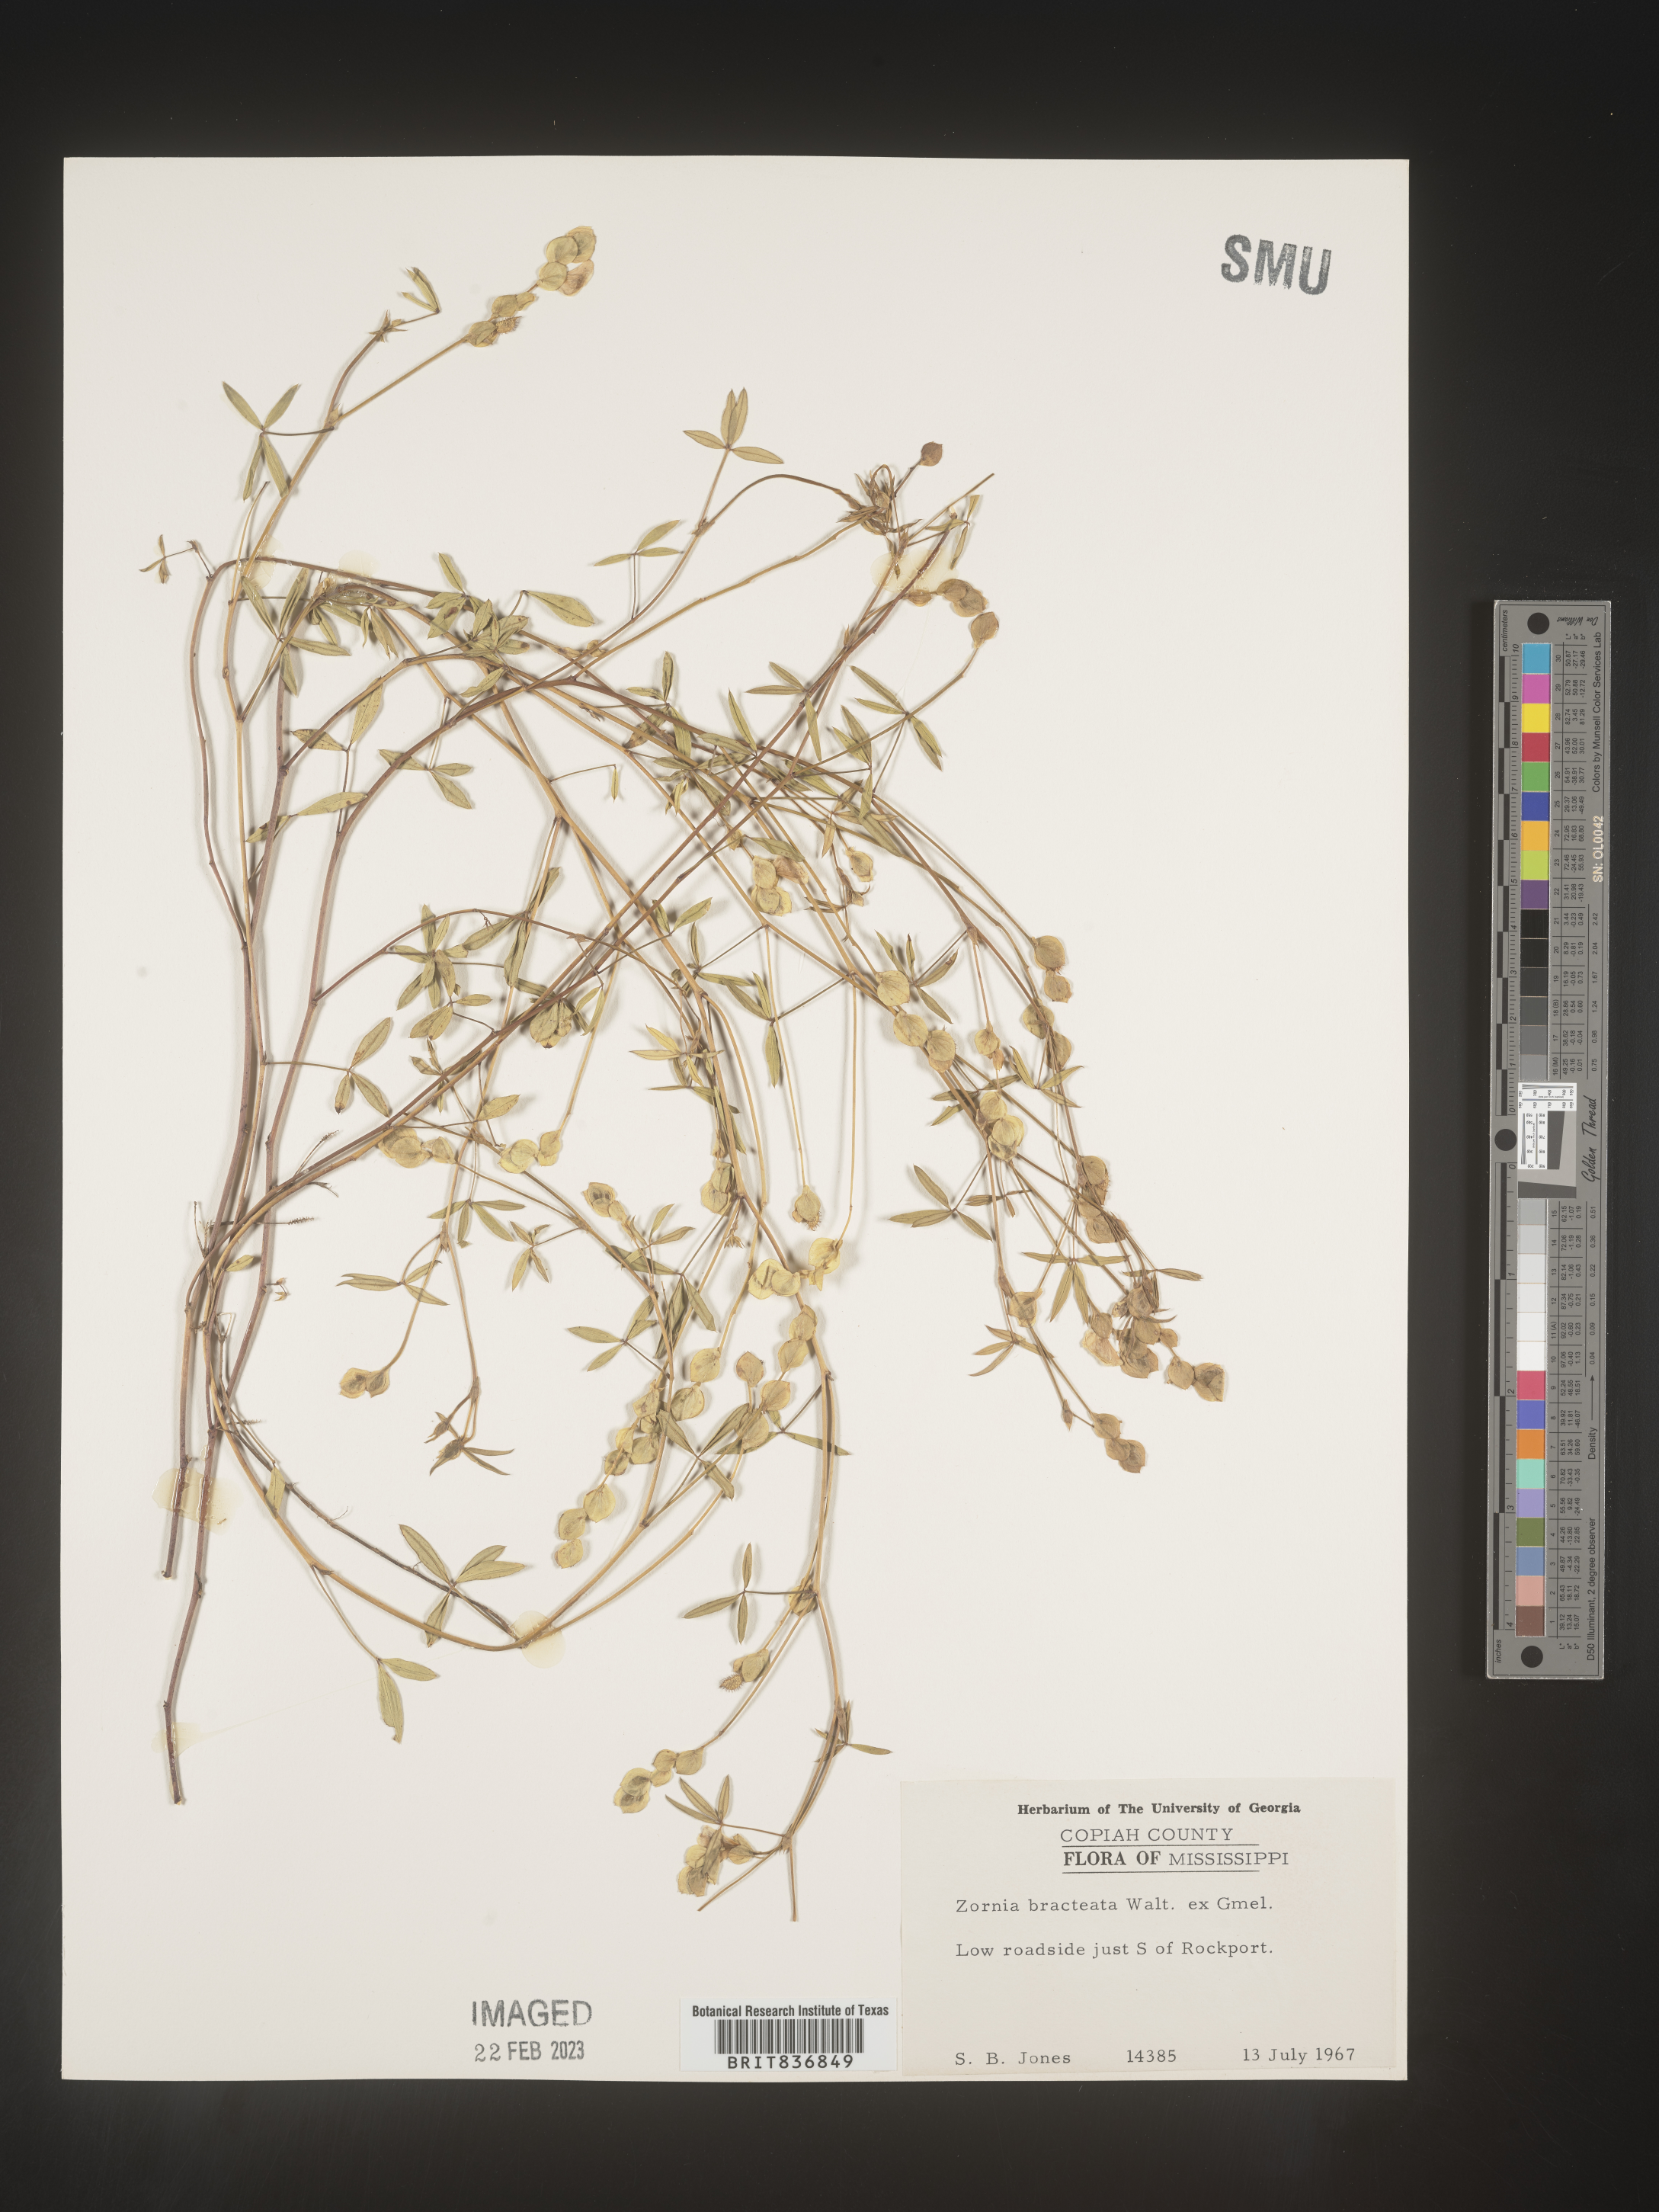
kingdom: Plantae
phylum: Tracheophyta
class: Magnoliopsida
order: Fabales
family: Fabaceae
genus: Zornia
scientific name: Zornia
